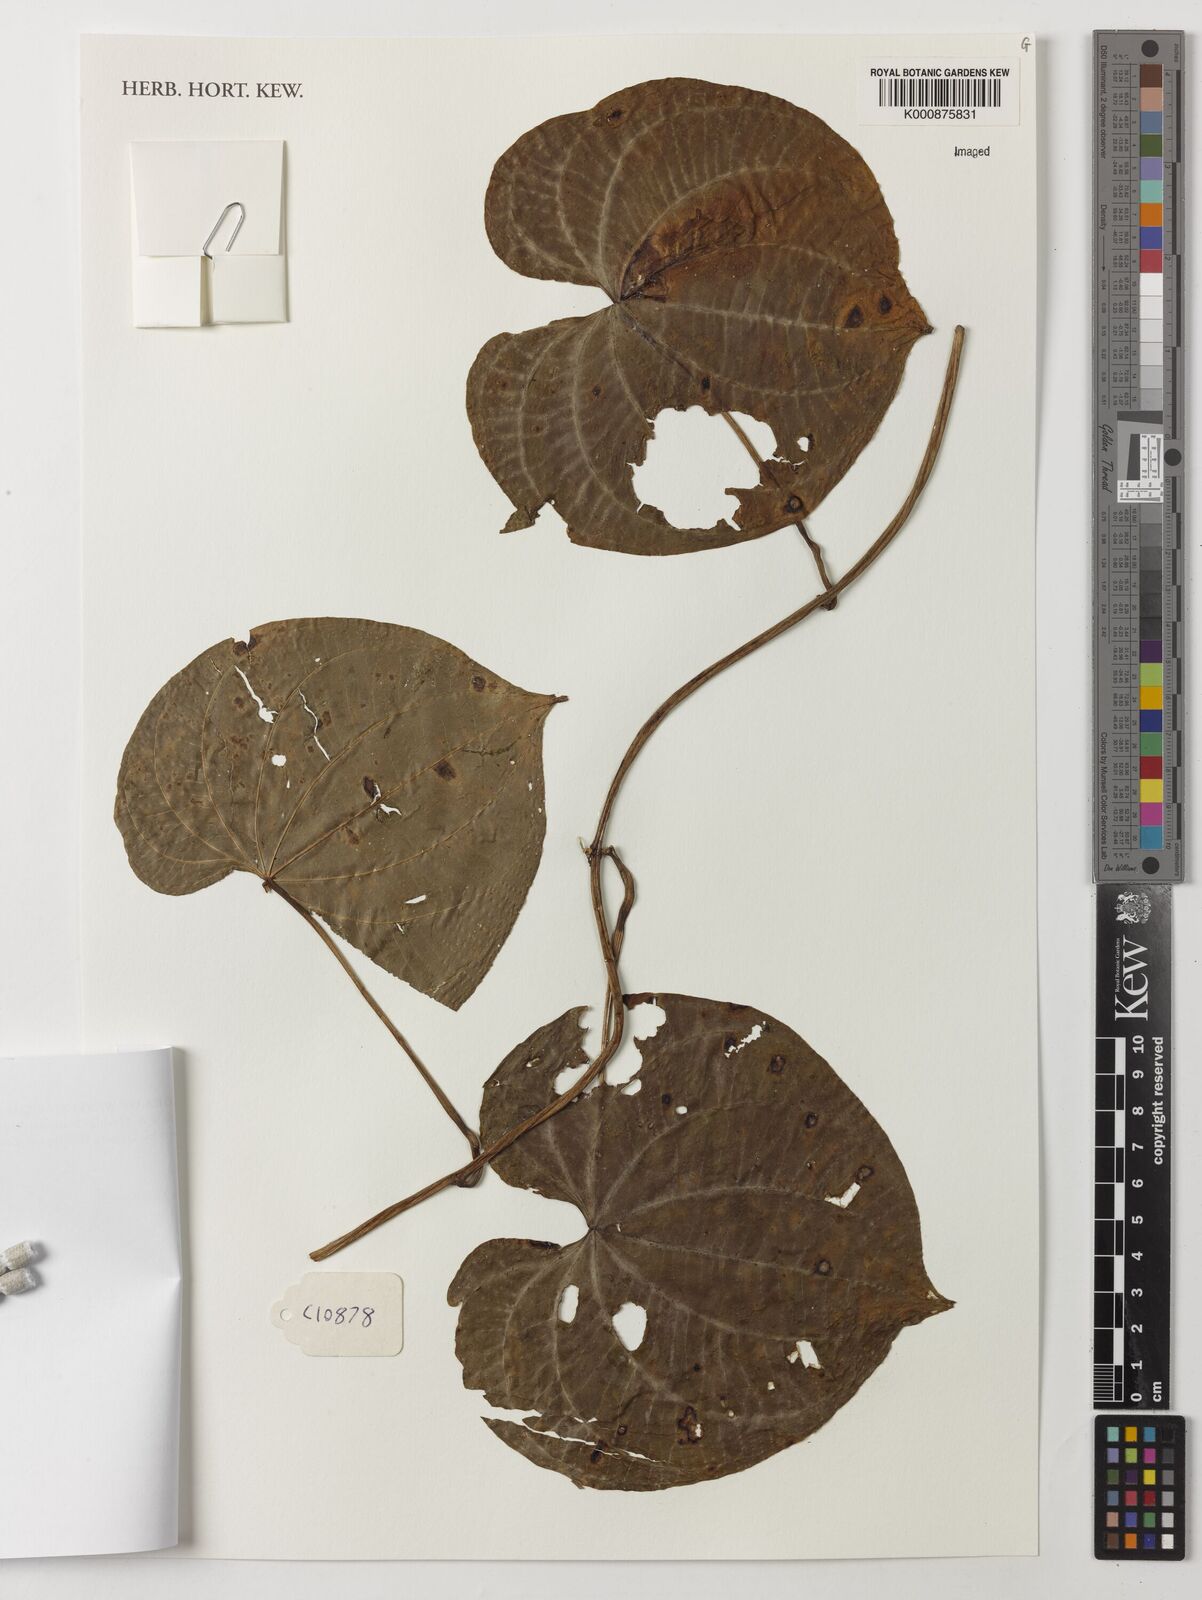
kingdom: Plantae
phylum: Tracheophyta
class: Liliopsida
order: Dioscoreales
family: Dioscoreaceae
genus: Dioscorea
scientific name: Dioscorea bulbifera
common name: Air yam
